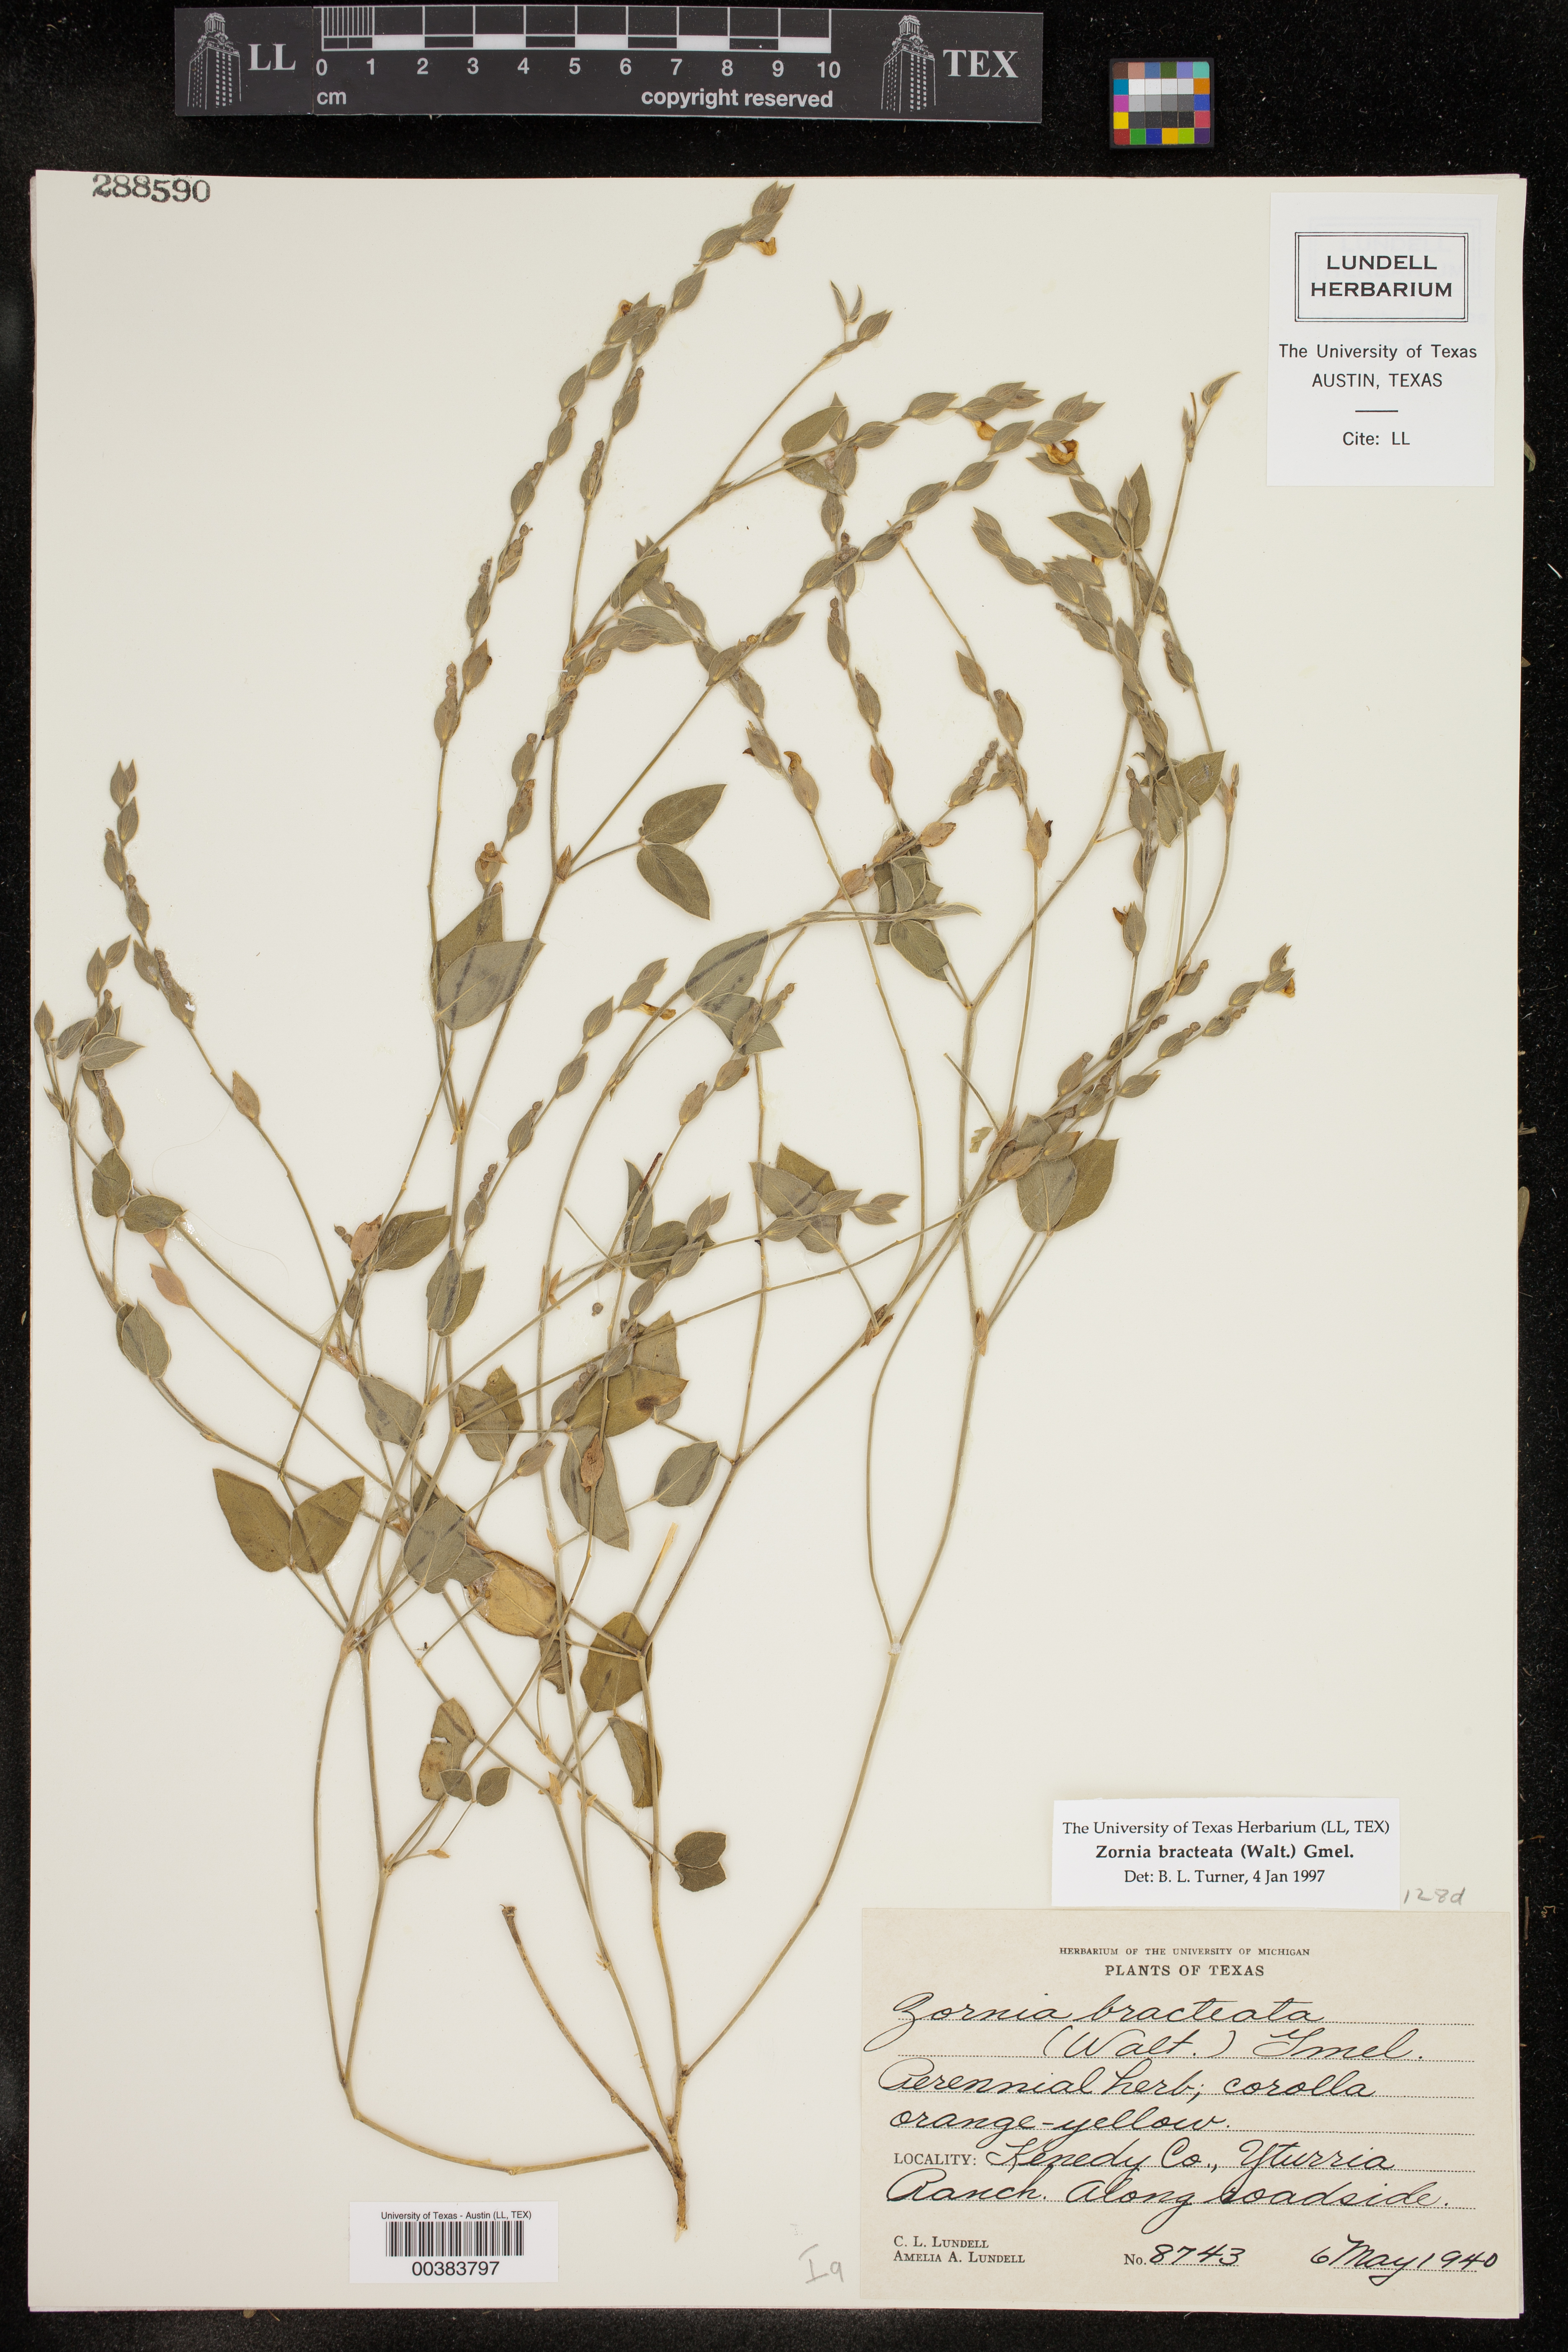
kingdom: Plantae
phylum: Tracheophyta
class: Magnoliopsida
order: Fabales
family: Fabaceae
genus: Zornia
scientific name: Zornia bracteata
